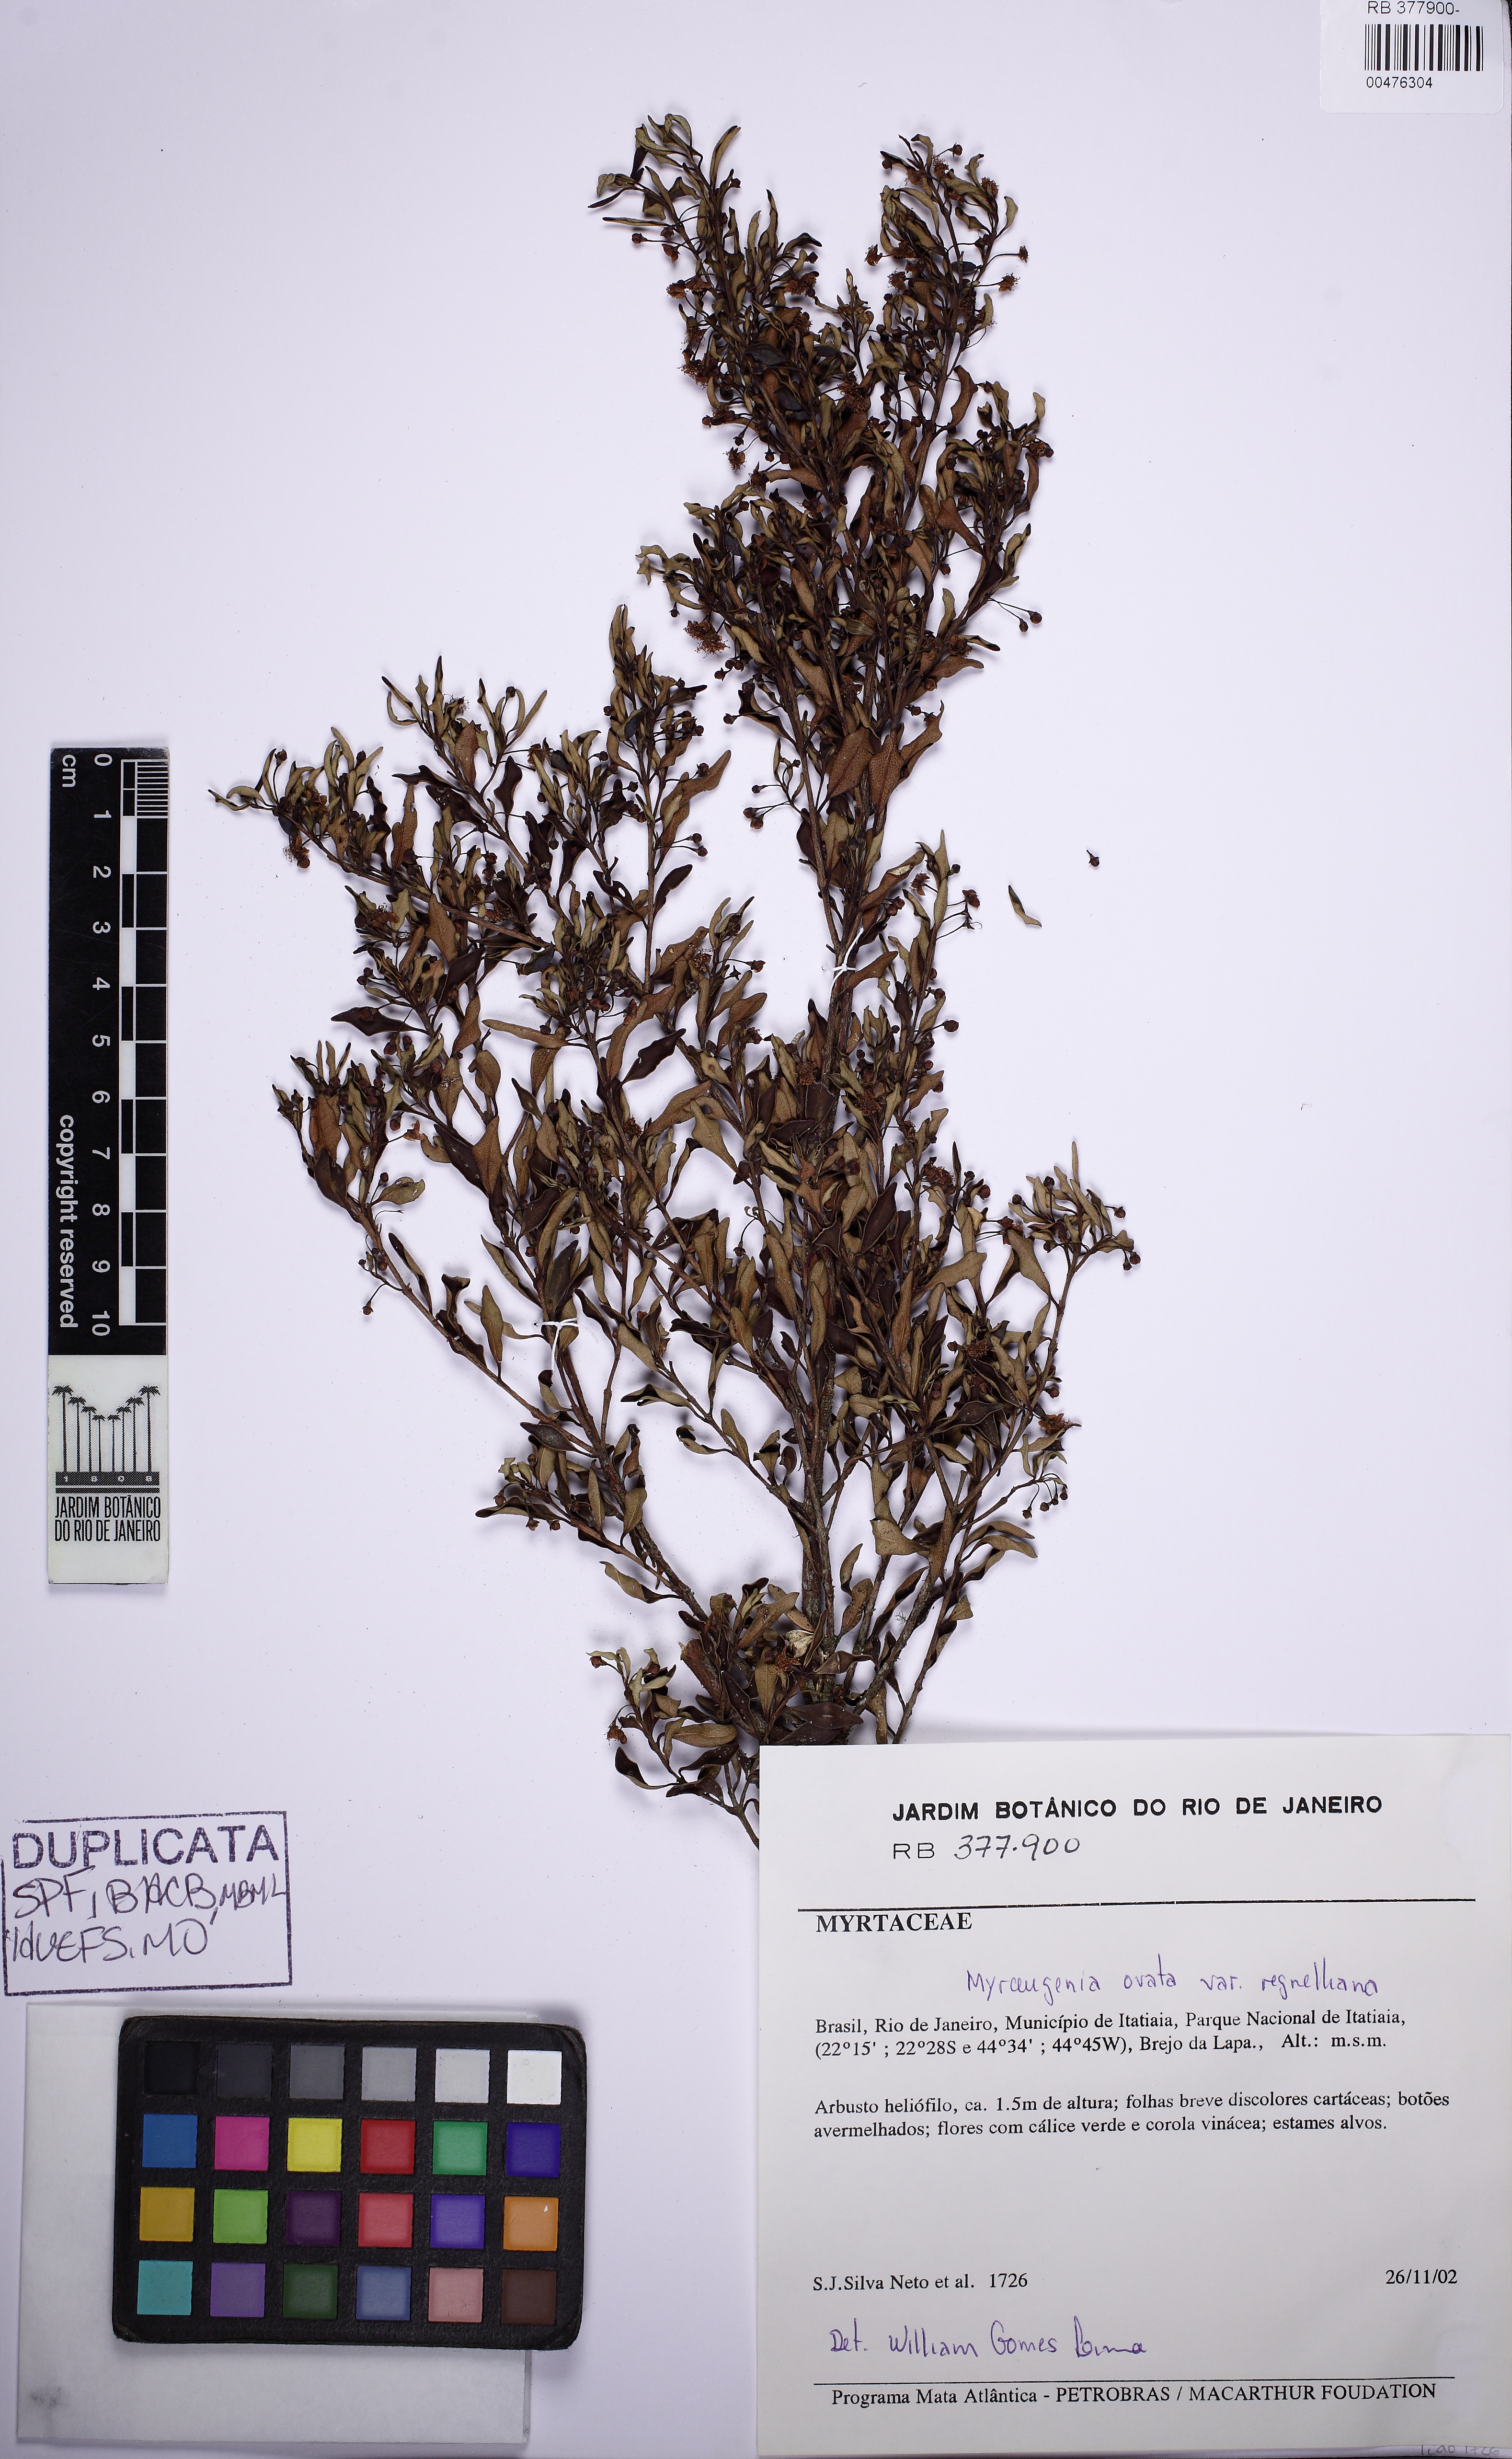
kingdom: Plantae
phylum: Tracheophyta
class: Magnoliopsida
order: Myrtales
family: Myrtaceae
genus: Myrceugenia
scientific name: Myrceugenia ovata
